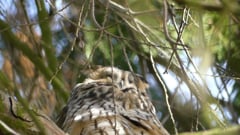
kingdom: Animalia
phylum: Chordata
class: Aves
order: Strigiformes
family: Strigidae
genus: Asio
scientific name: Asio otus
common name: Long-eared owl
